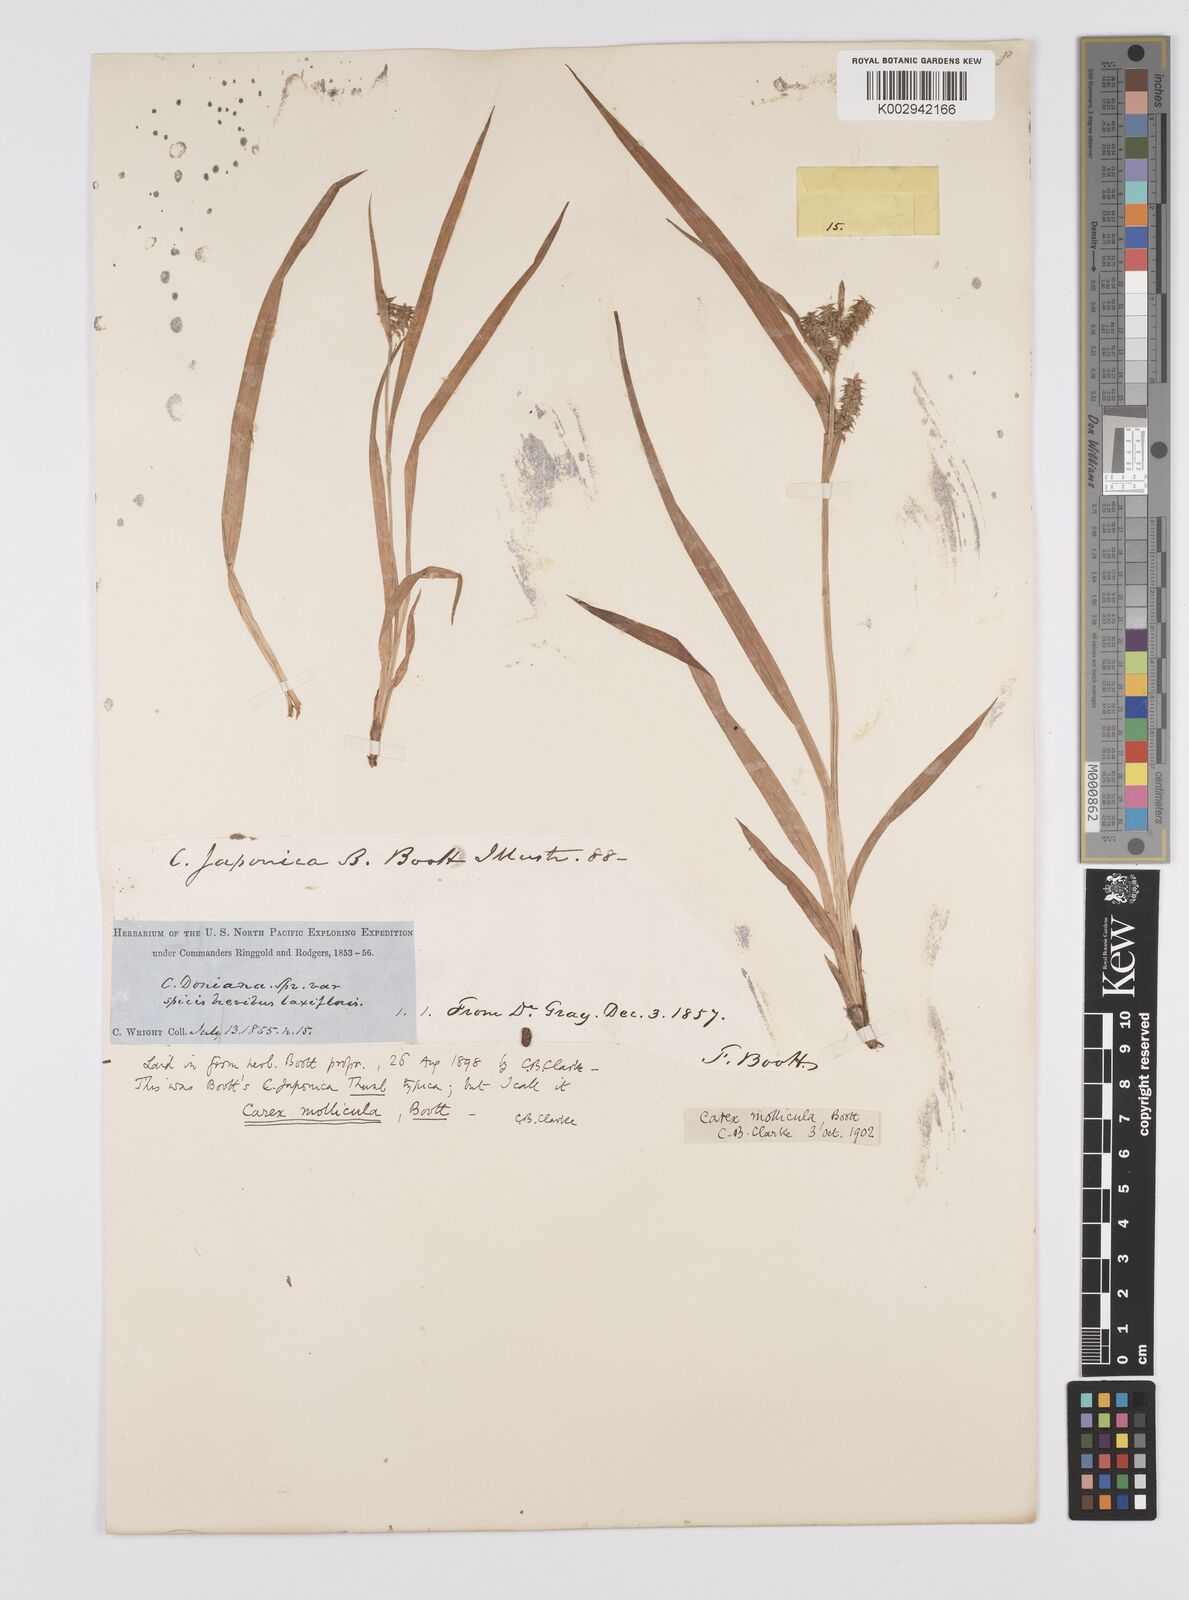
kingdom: Plantae
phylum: Tracheophyta
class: Liliopsida
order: Poales
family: Cyperaceae
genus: Carex
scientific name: Carex mollicula
